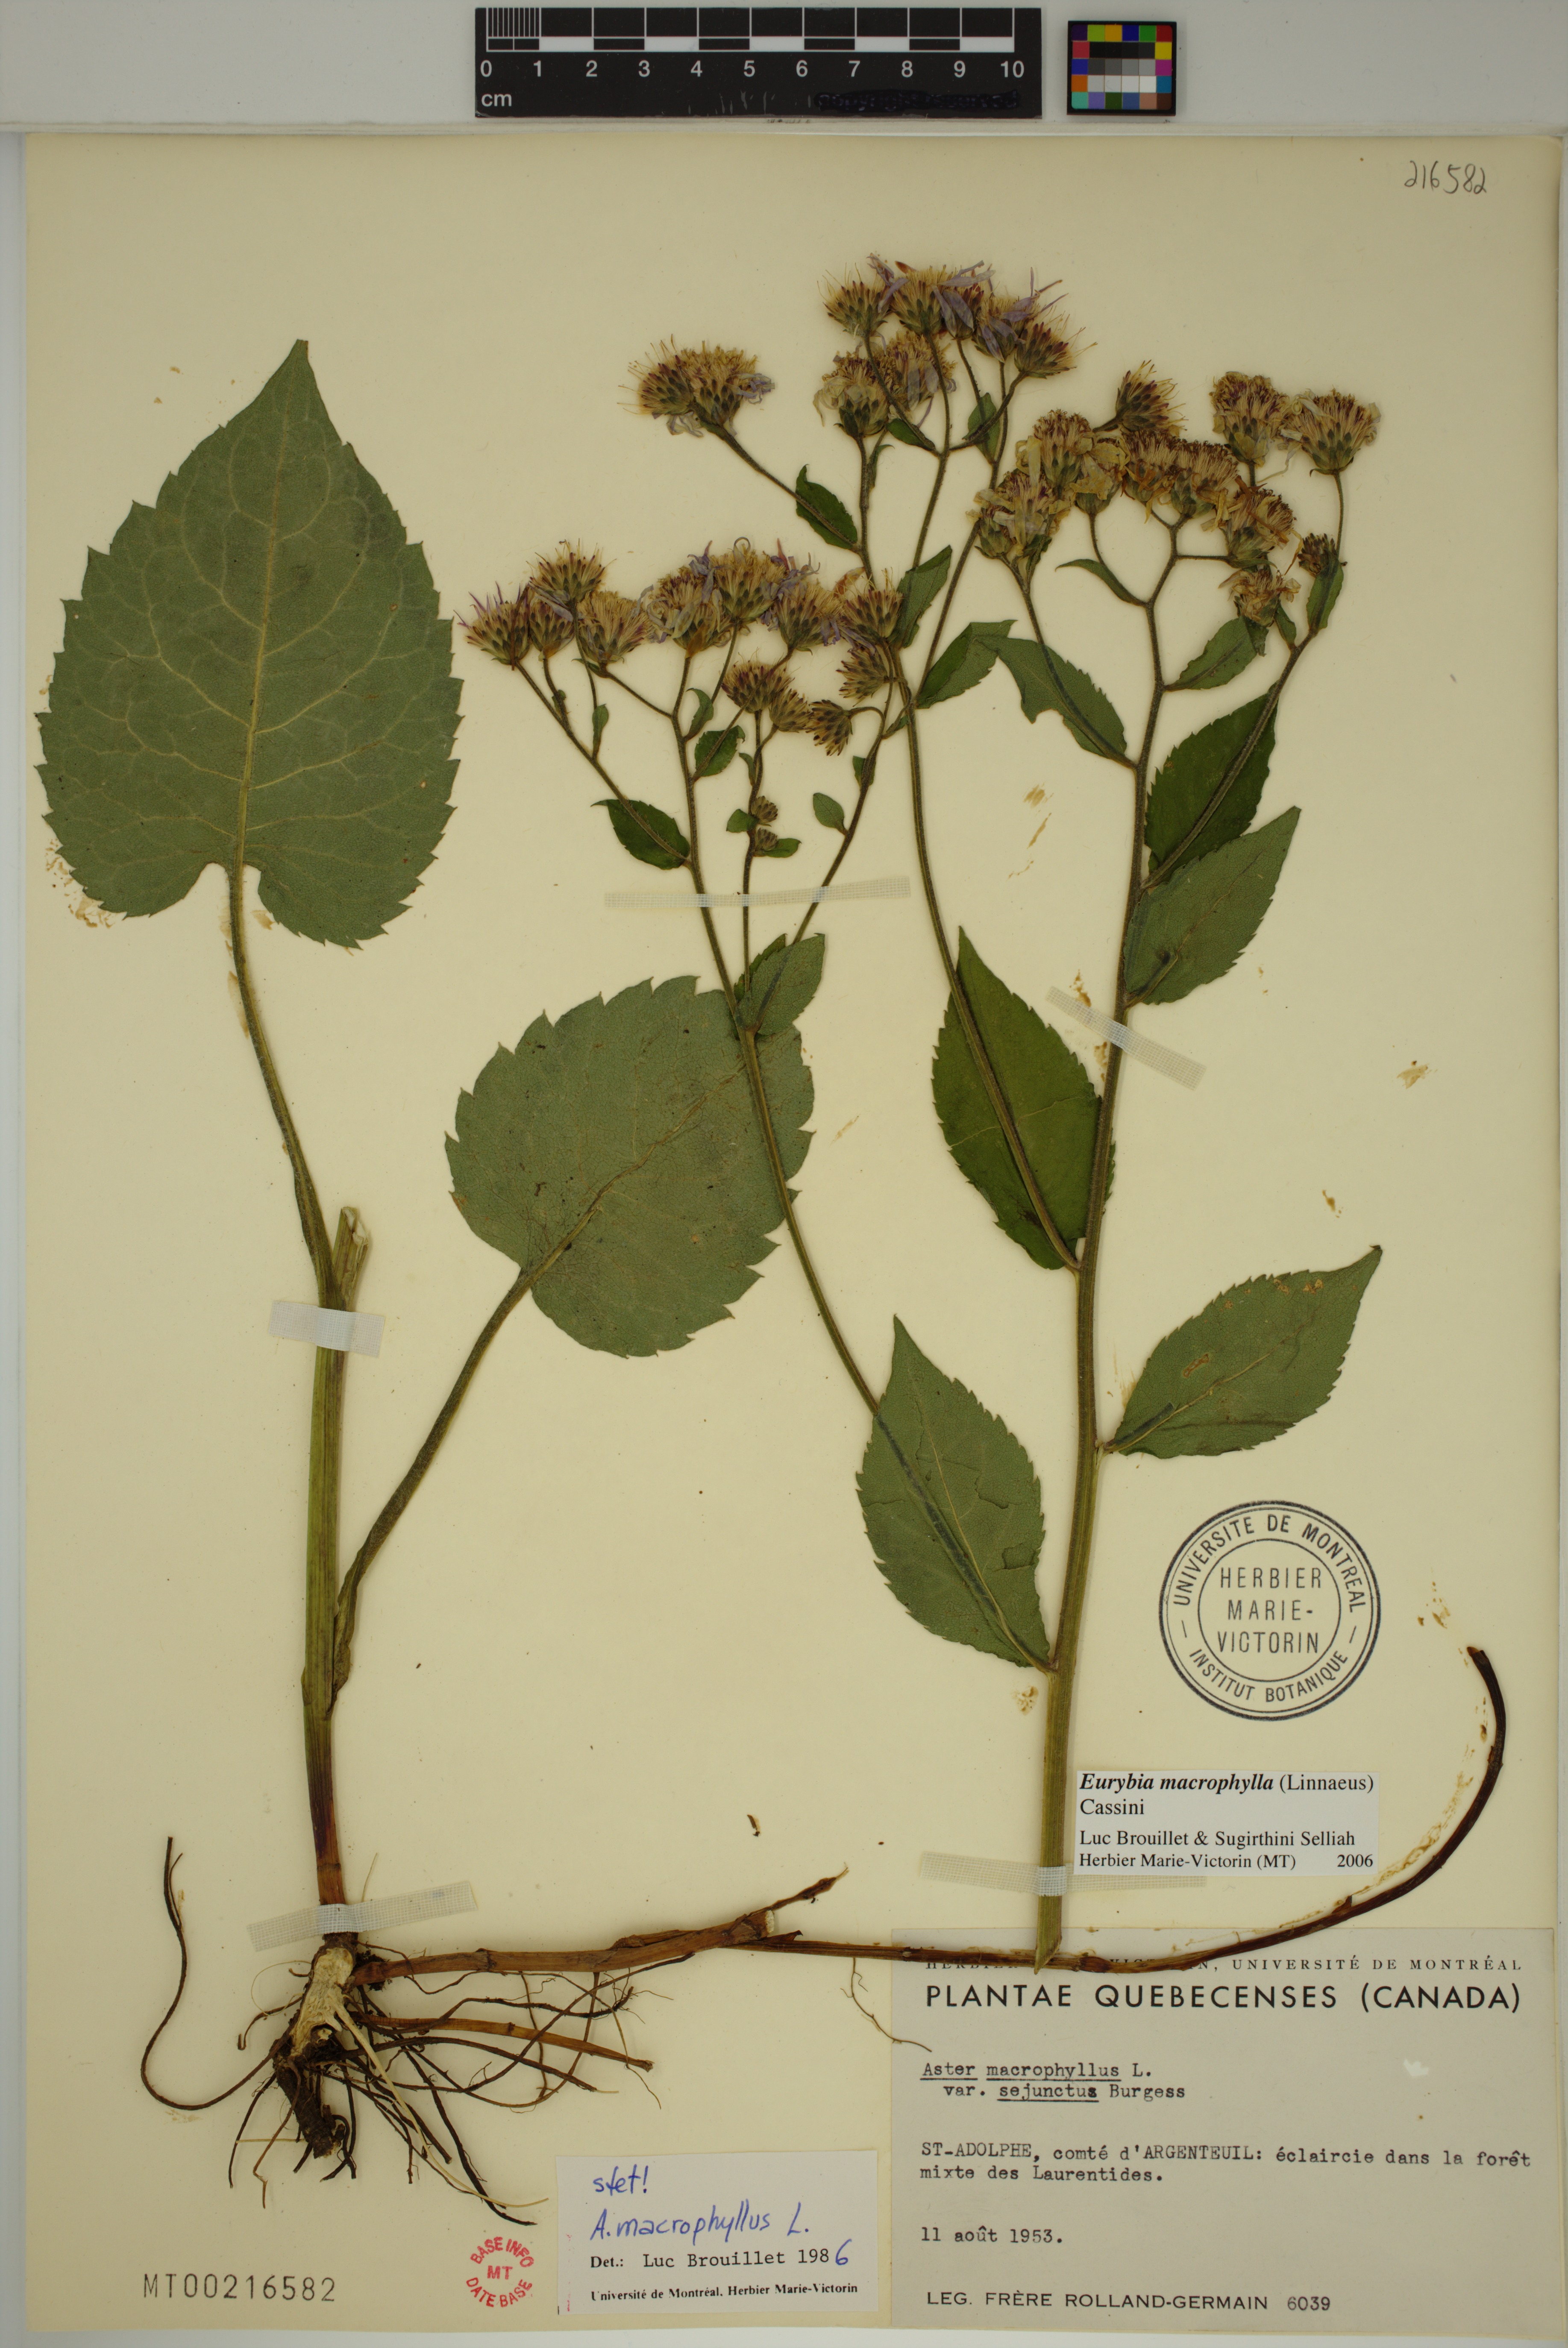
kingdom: Plantae
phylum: Tracheophyta
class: Magnoliopsida
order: Asterales
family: Asteraceae
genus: Eurybia
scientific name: Eurybia macrophylla
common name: Big-leaved aster
